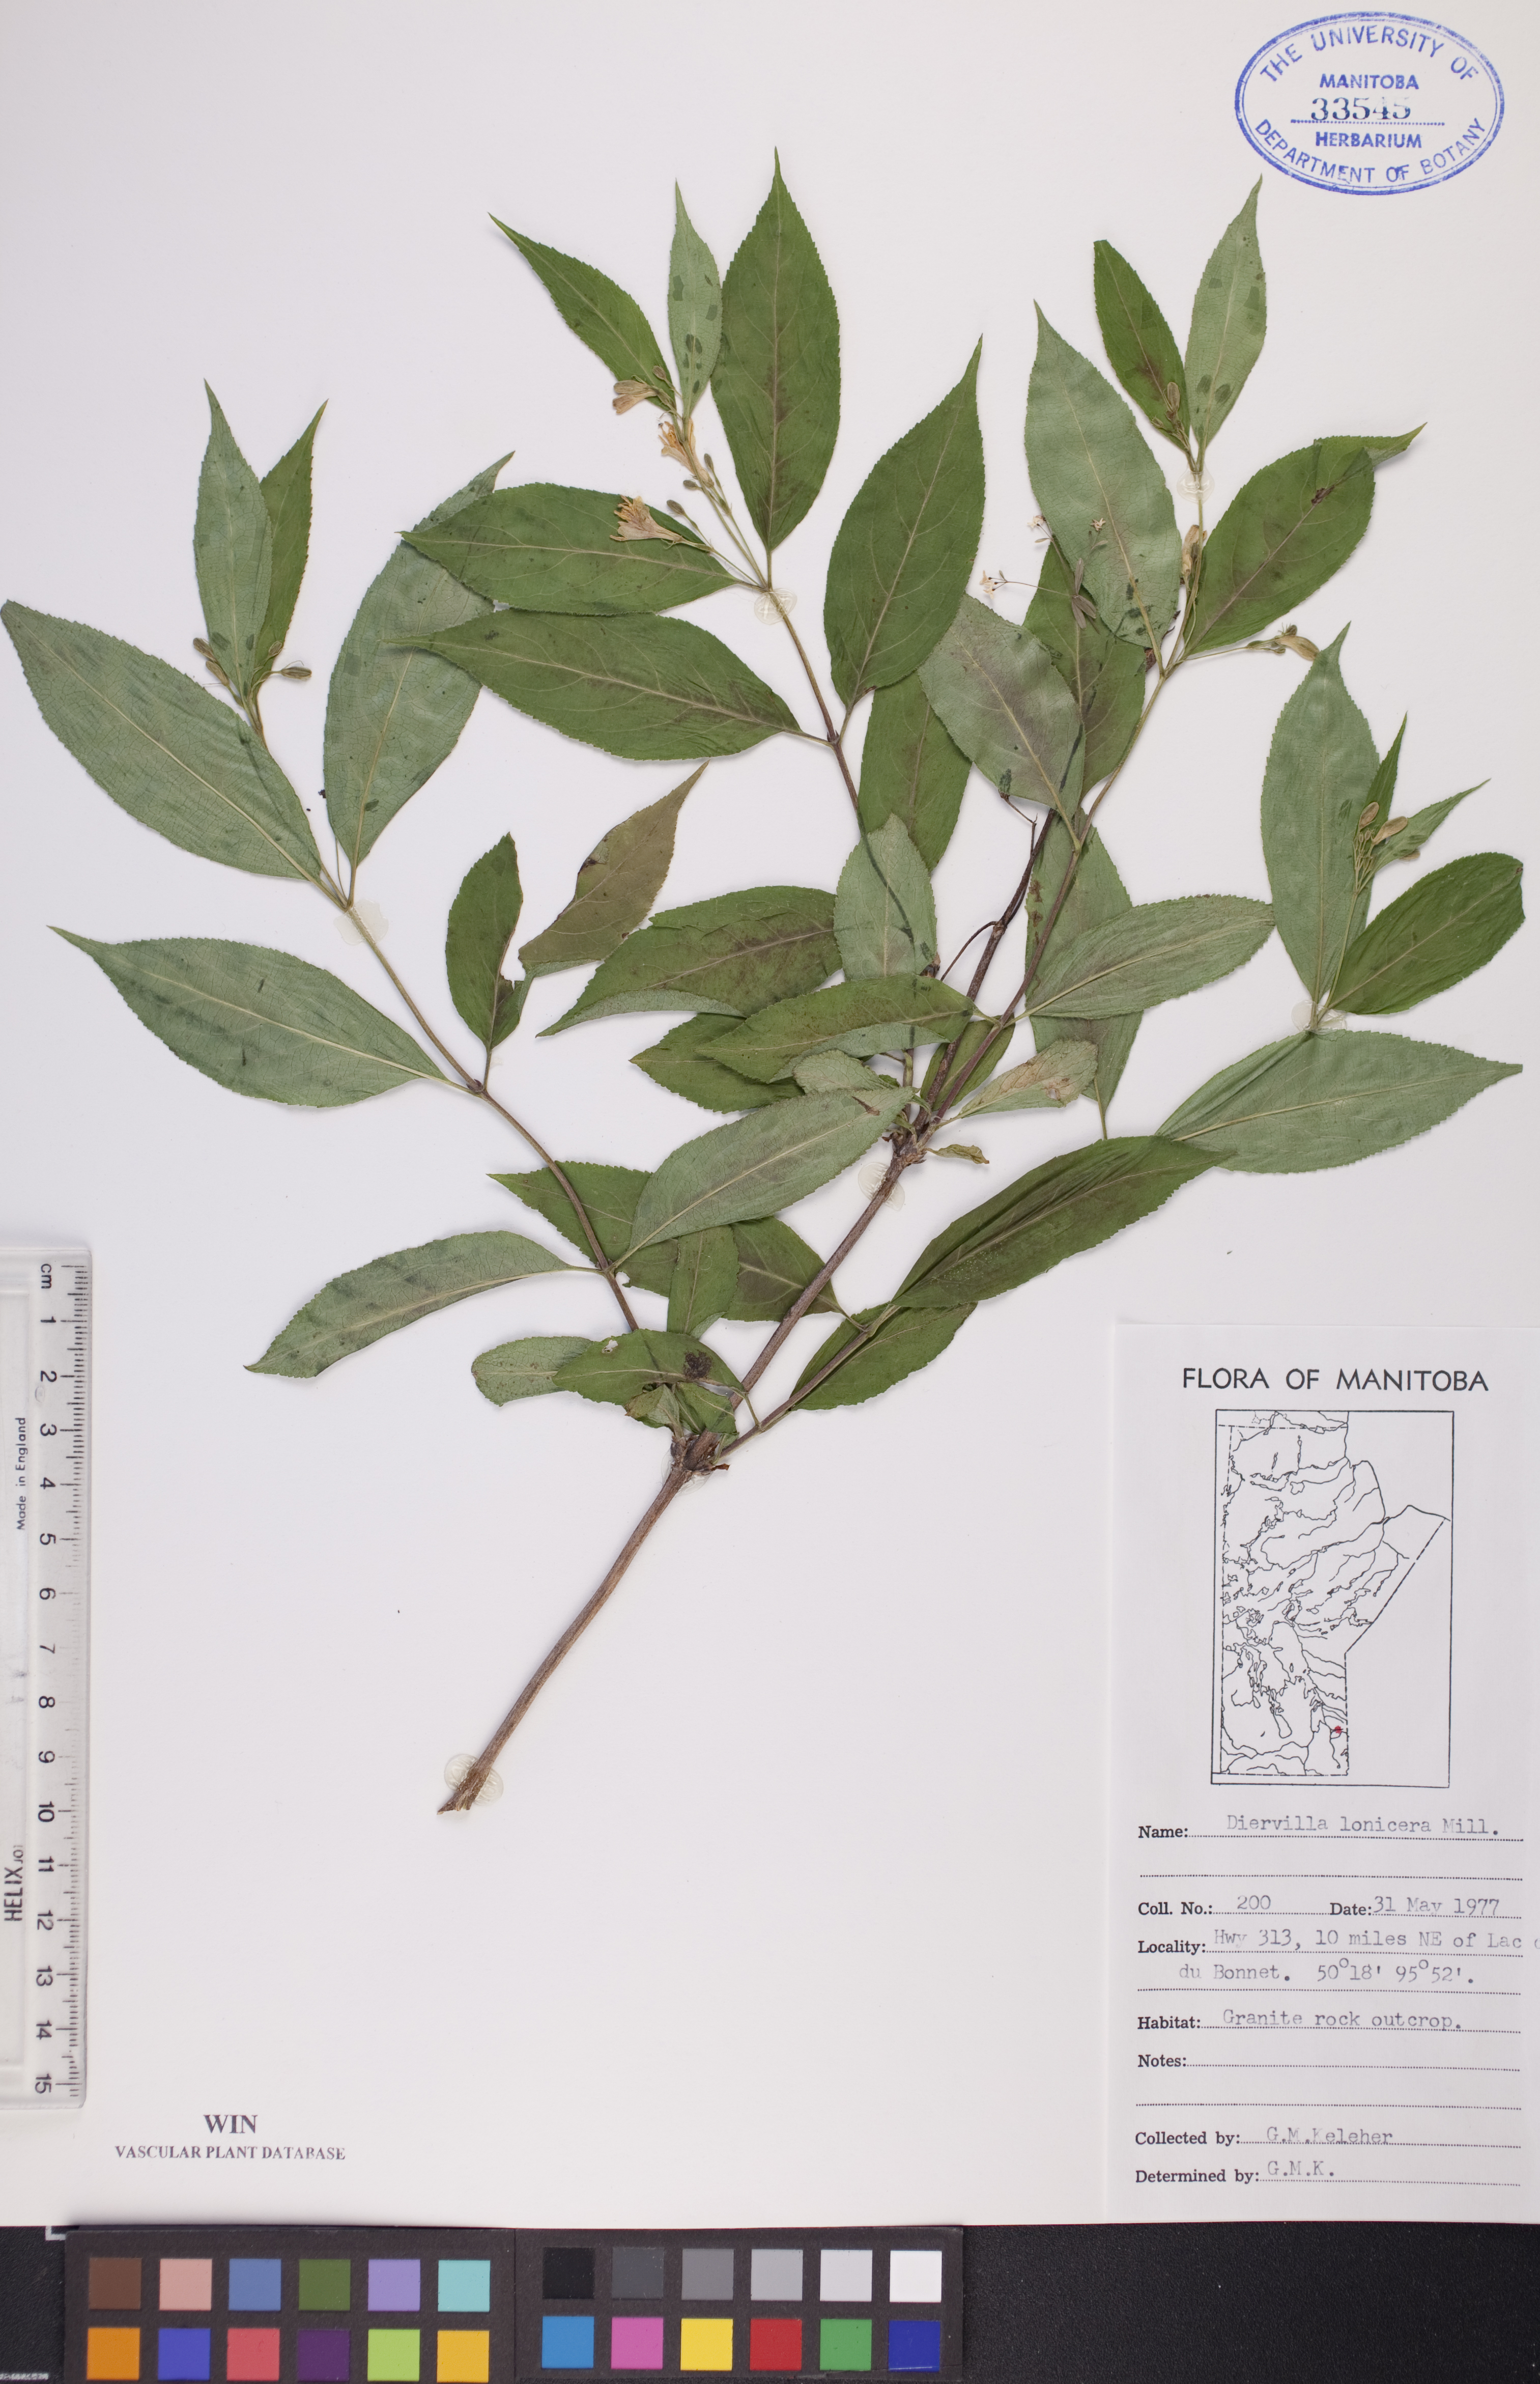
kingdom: Plantae
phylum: Tracheophyta
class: Magnoliopsida
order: Dipsacales
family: Caprifoliaceae
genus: Diervilla
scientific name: Diervilla lonicera
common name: Bush-honeysuckle
